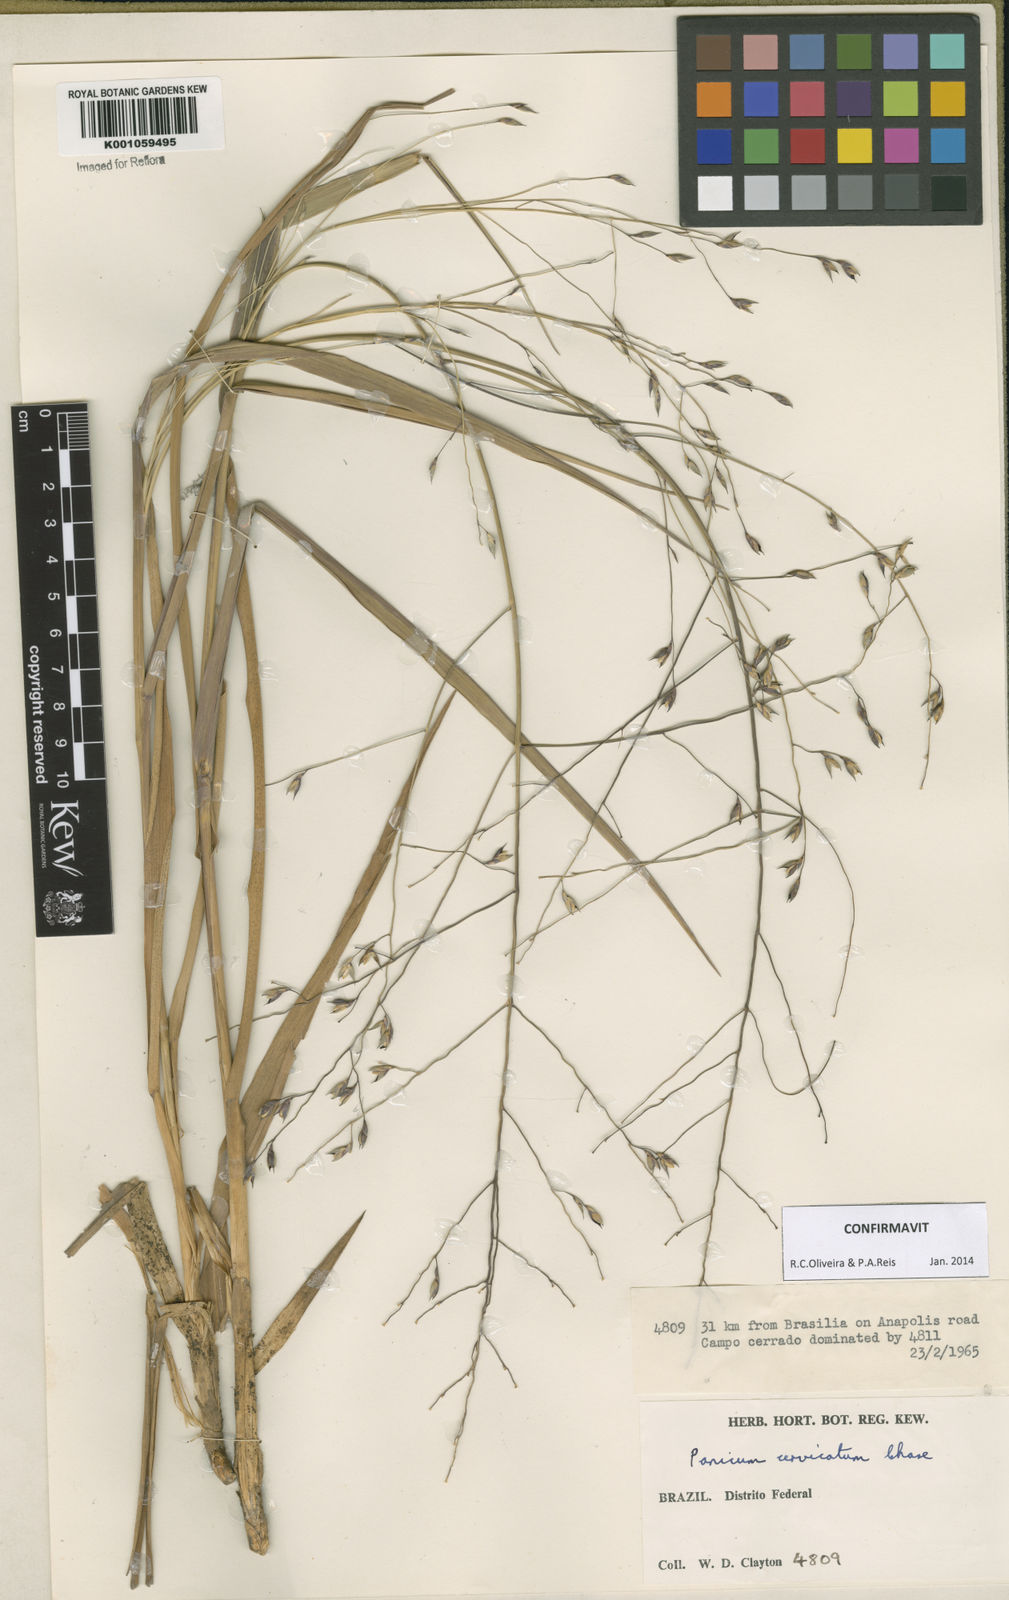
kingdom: Plantae
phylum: Tracheophyta
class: Liliopsida
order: Poales
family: Poaceae
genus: Panicum
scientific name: Panicum cervicatum
